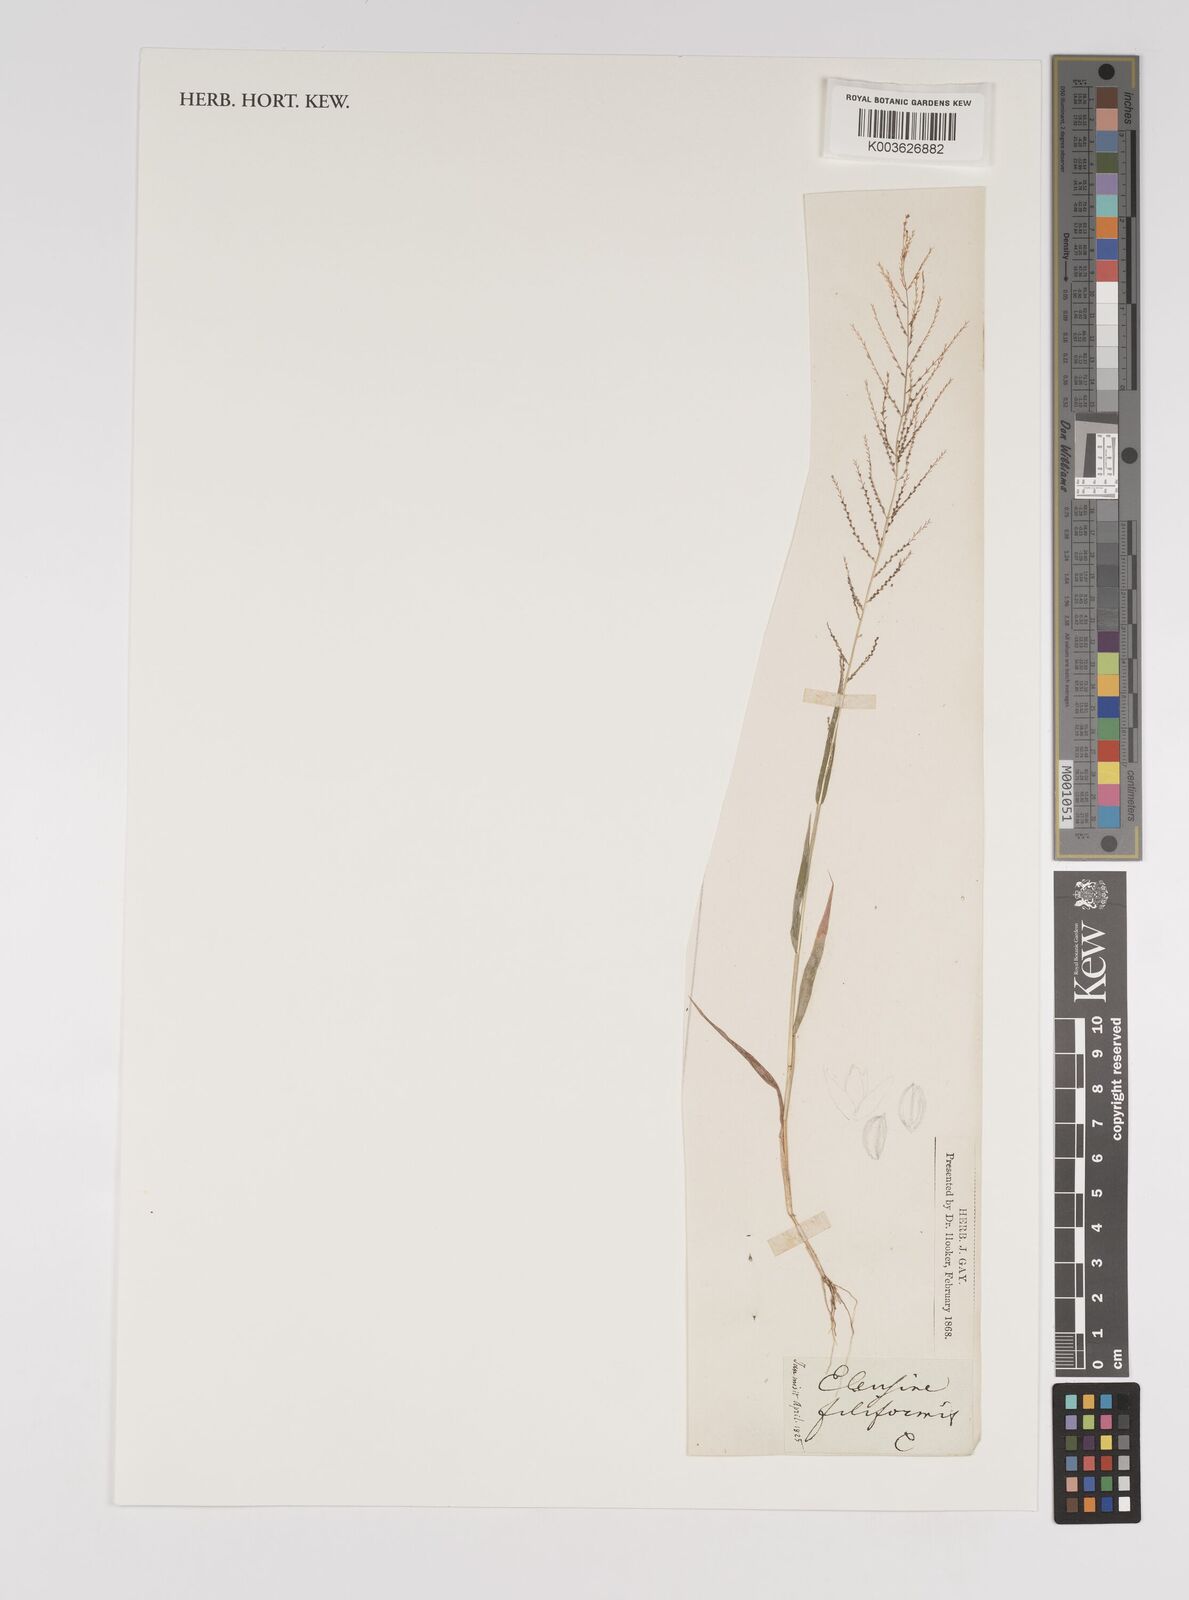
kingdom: Plantae
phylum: Tracheophyta
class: Liliopsida
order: Poales
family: Poaceae
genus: Leptochloa
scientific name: Leptochloa mucronata
